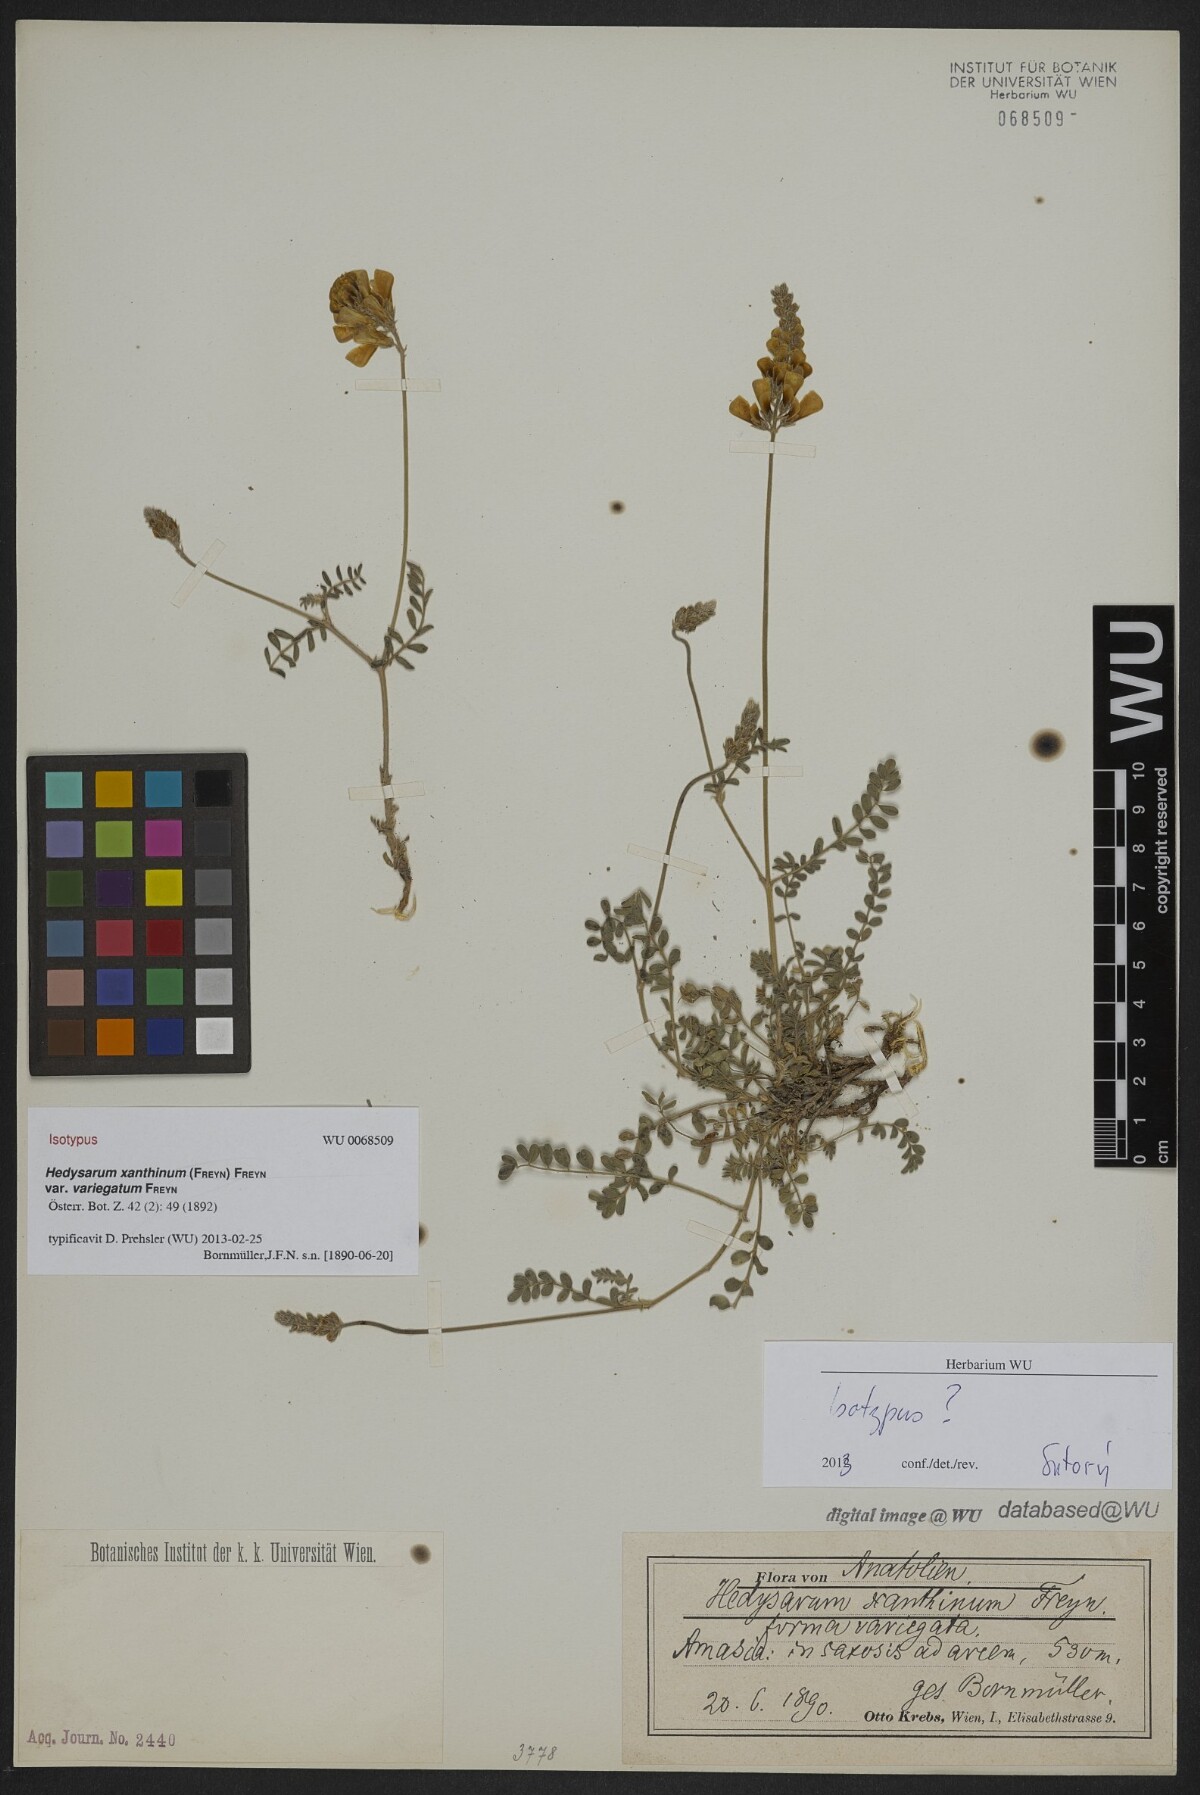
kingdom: Plantae
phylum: Tracheophyta
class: Magnoliopsida
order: Fabales
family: Fabaceae
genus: Hedysarum
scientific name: Hedysarum pogonocarpum
